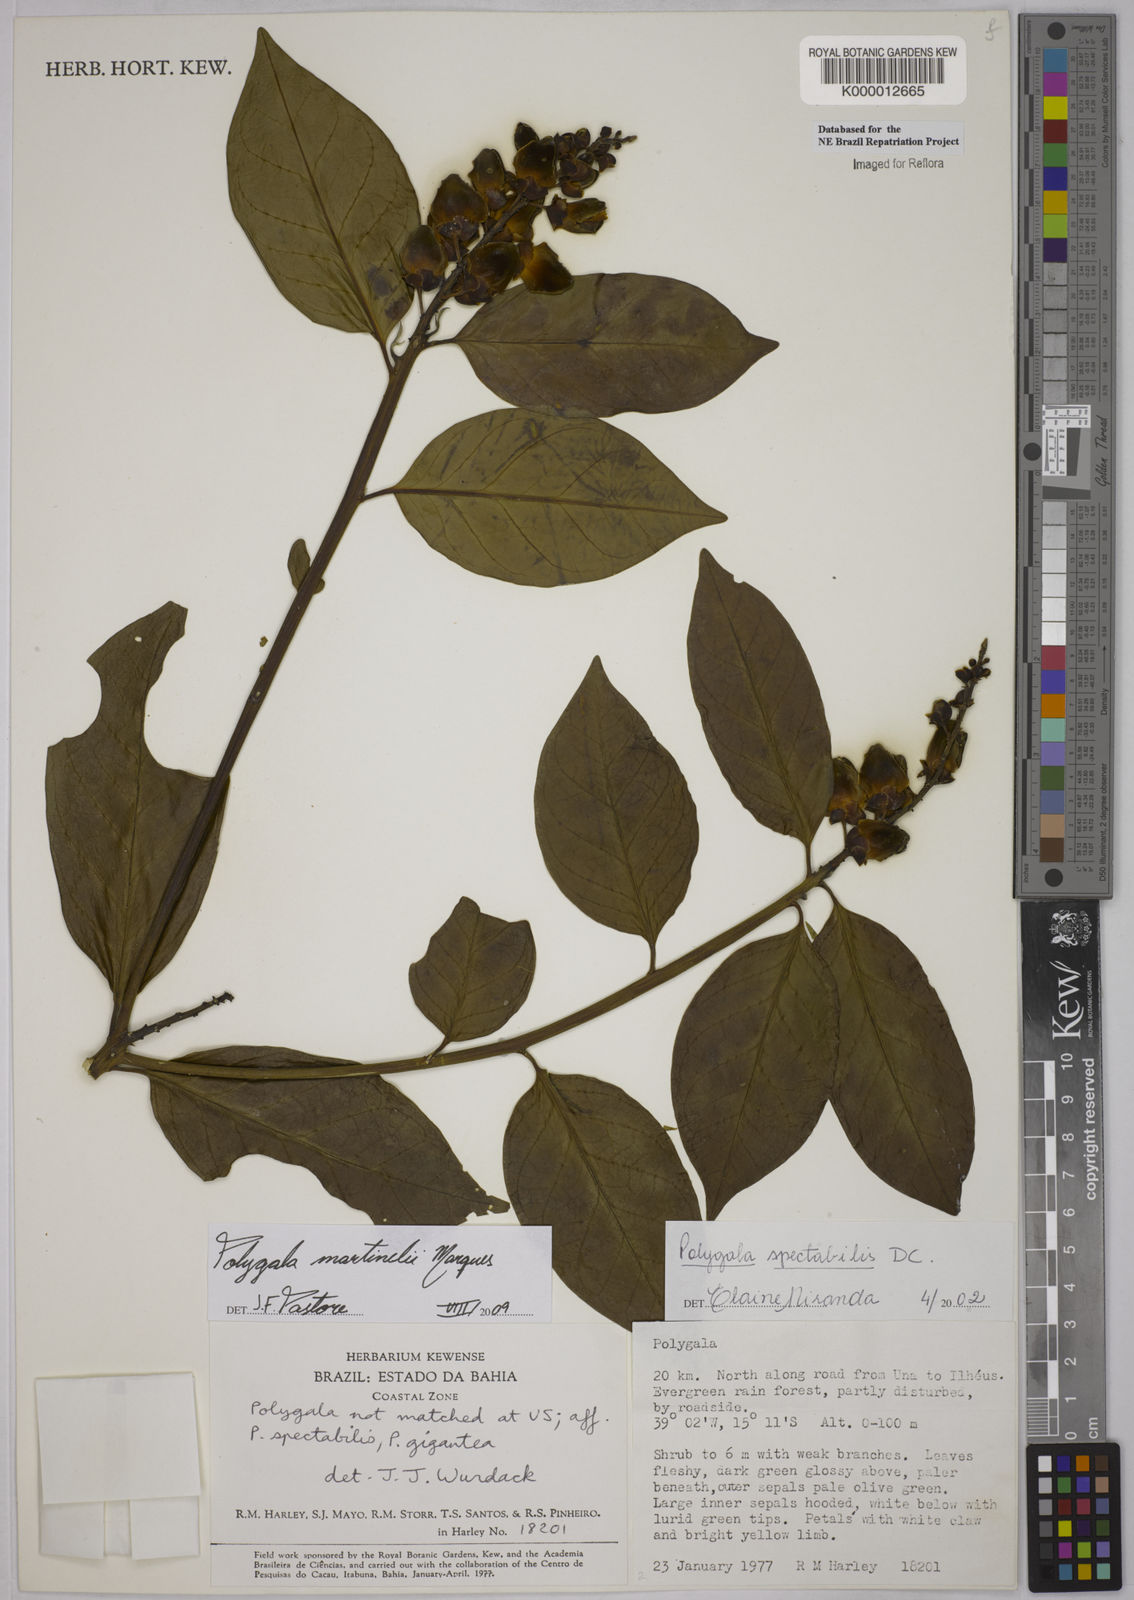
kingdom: Plantae
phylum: Tracheophyta
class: Magnoliopsida
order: Fabales
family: Polygalaceae
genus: Caamembeca
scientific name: Caamembeca spectabilis
